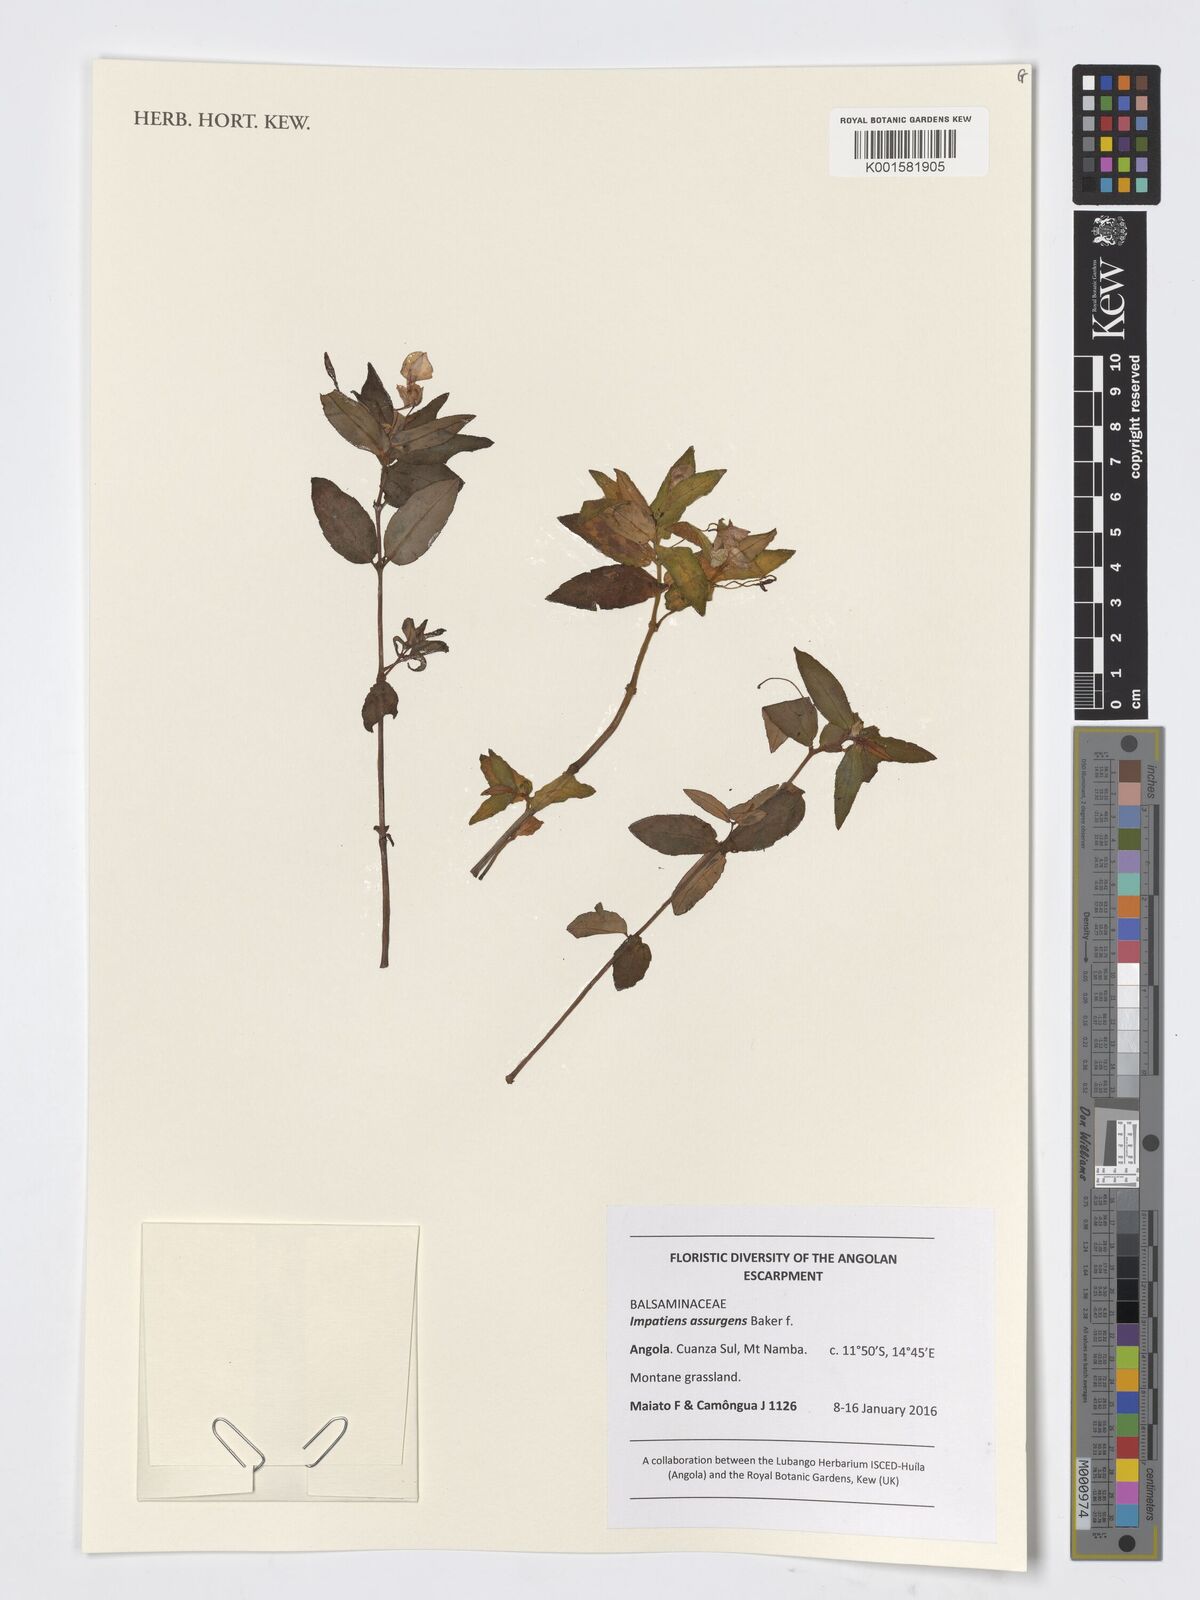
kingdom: Plantae
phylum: Tracheophyta
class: Magnoliopsida
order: Ericales
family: Balsaminaceae
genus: Impatiens
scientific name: Impatiens assurgens
